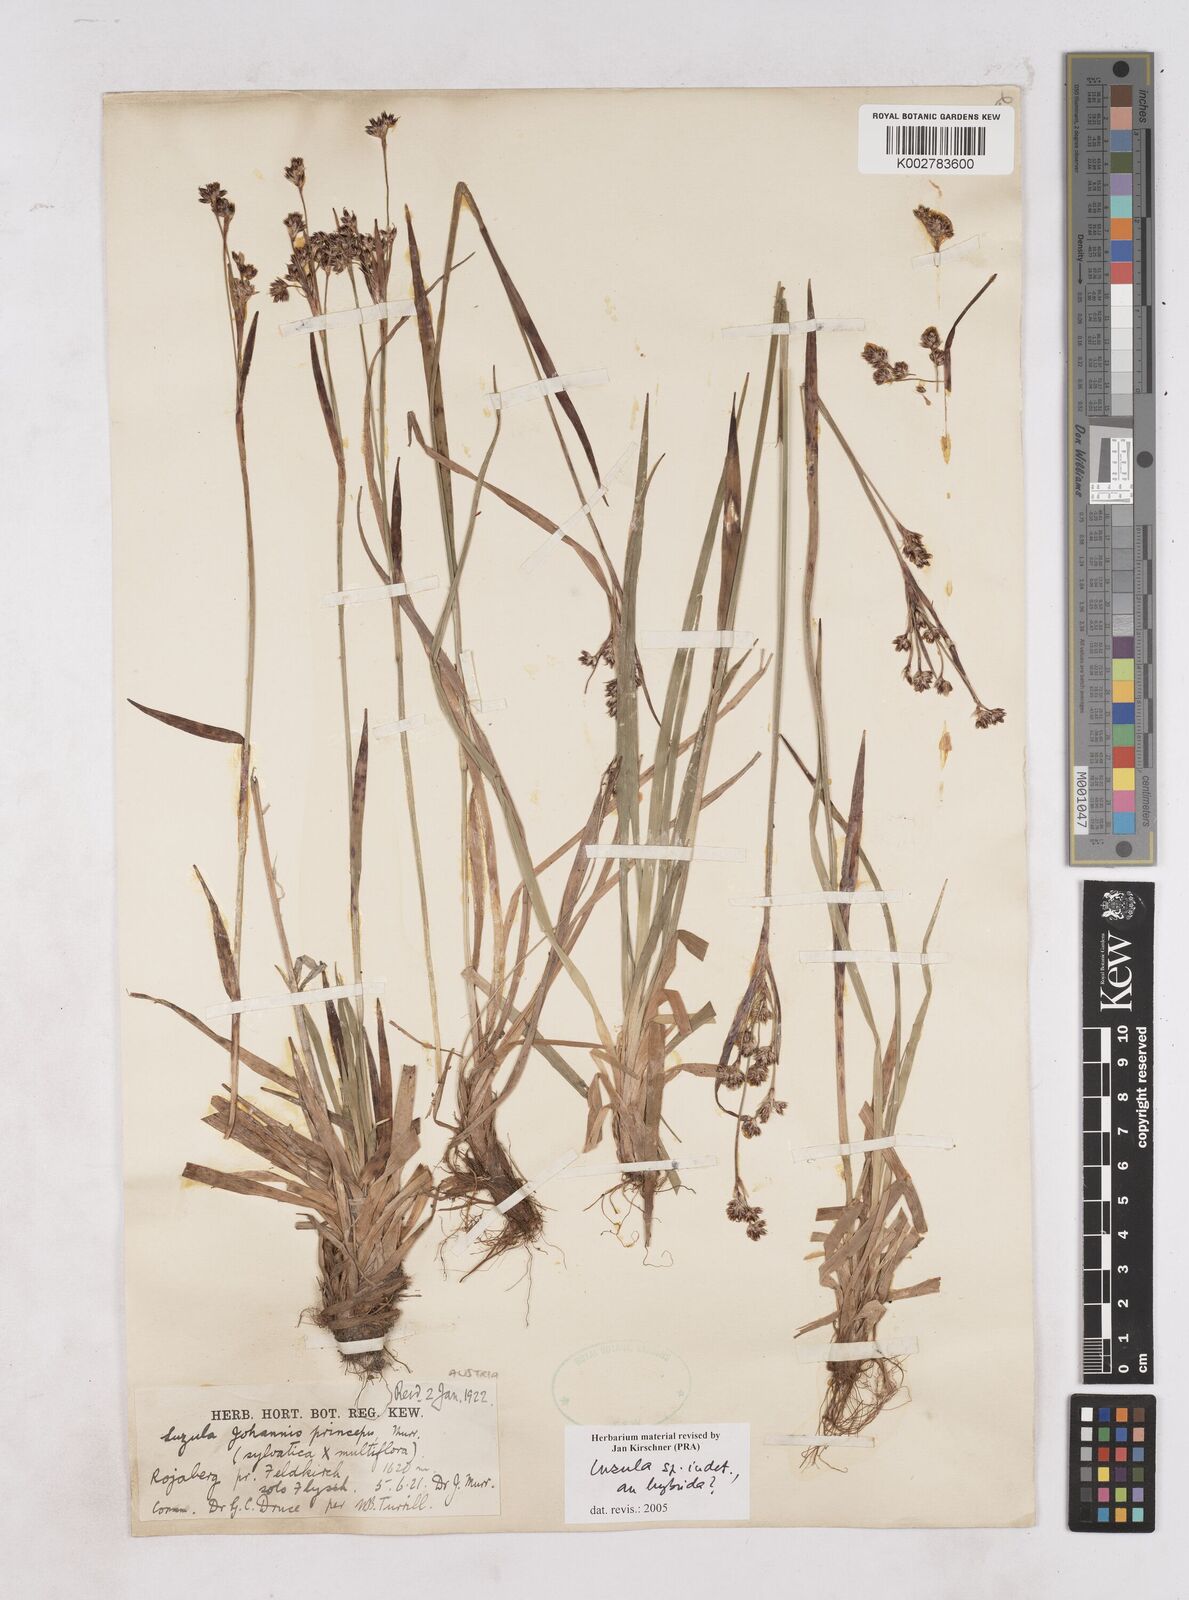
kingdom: Plantae
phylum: Tracheophyta
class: Liliopsida
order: Poales
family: Juncaceae
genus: Luzula
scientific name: Luzula
